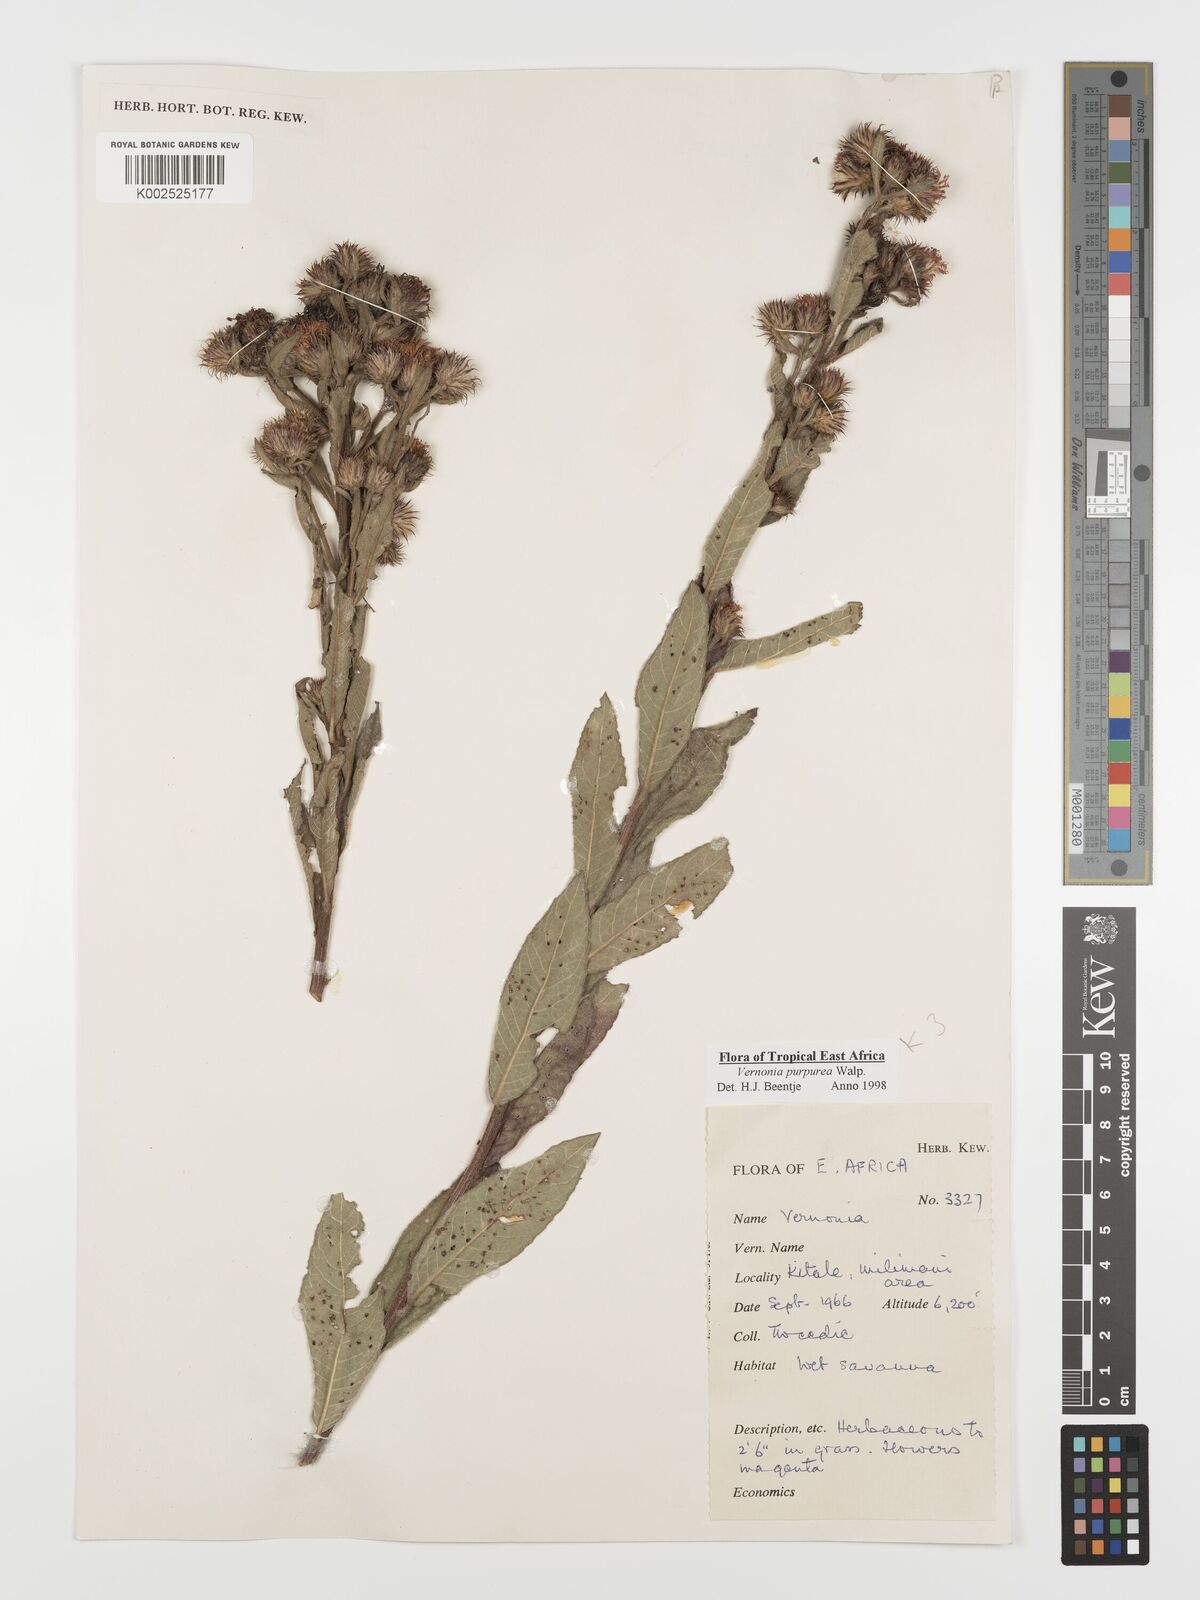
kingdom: Plantae
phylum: Tracheophyta
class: Magnoliopsida
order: Asterales
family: Asteraceae
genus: Nothovernonia
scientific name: Nothovernonia purpurea
